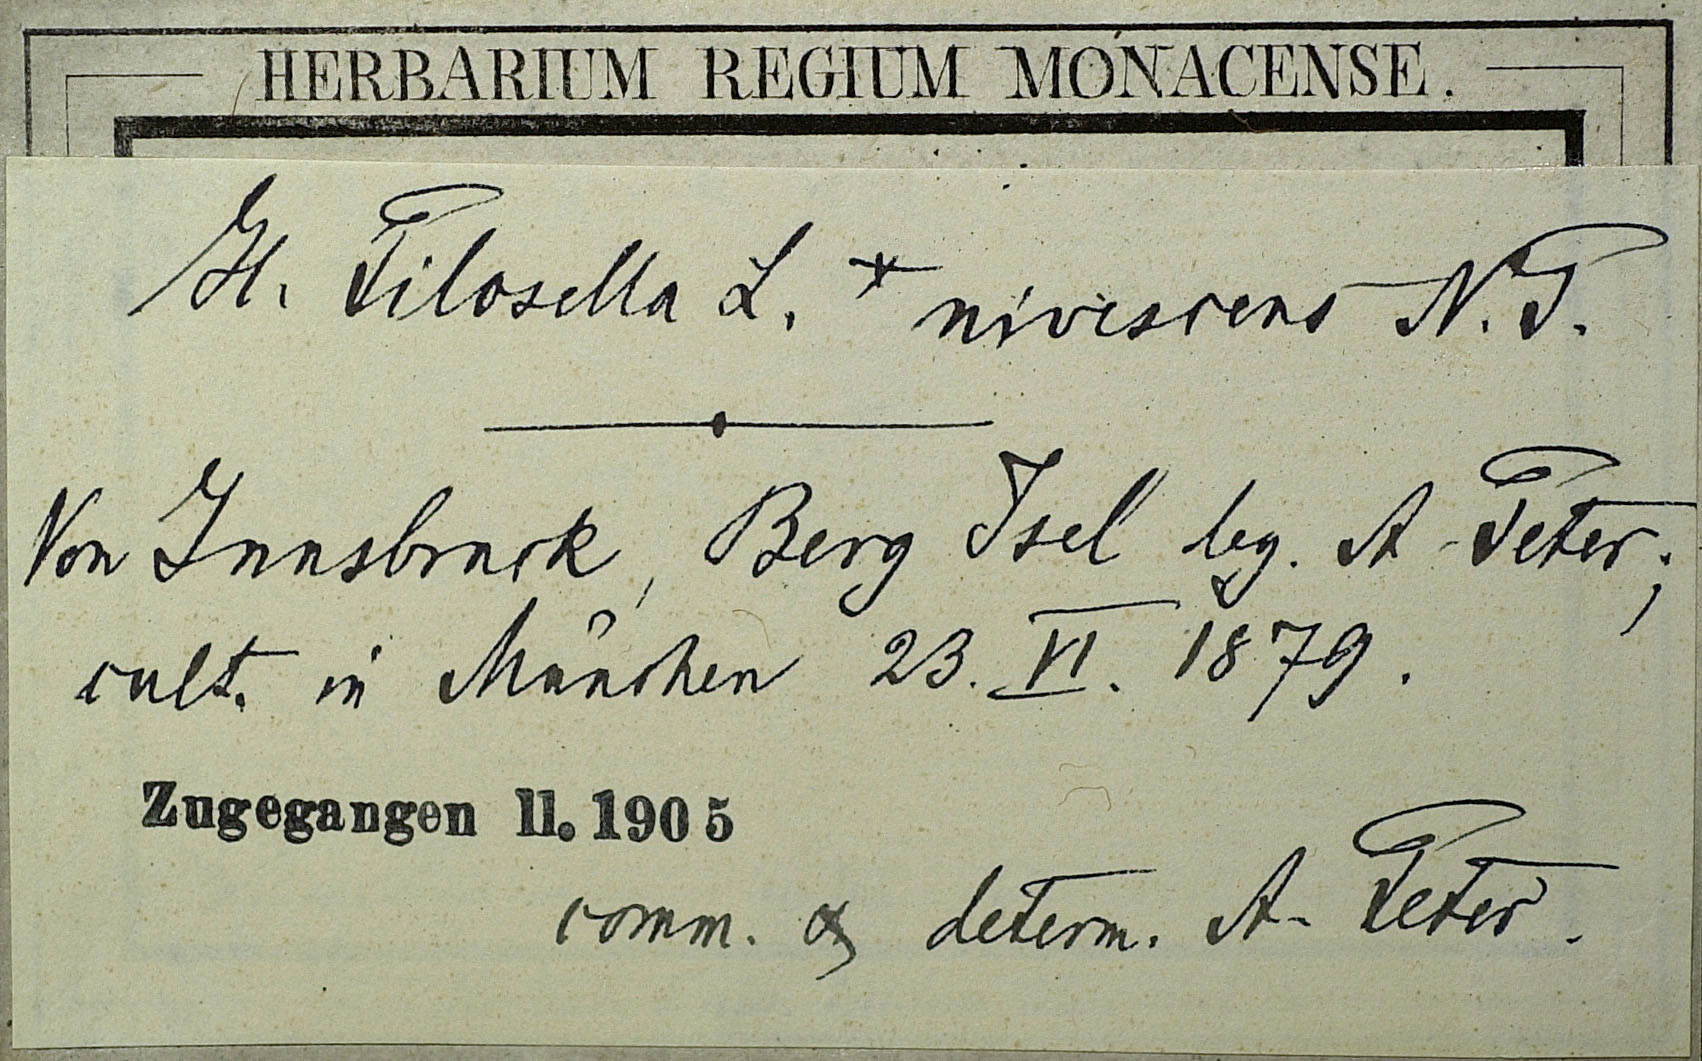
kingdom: Plantae
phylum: Tracheophyta
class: Magnoliopsida
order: Asterales
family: Asteraceae
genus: Pilosella
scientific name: Pilosella officinarum
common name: Mouse-ear hawkweed
